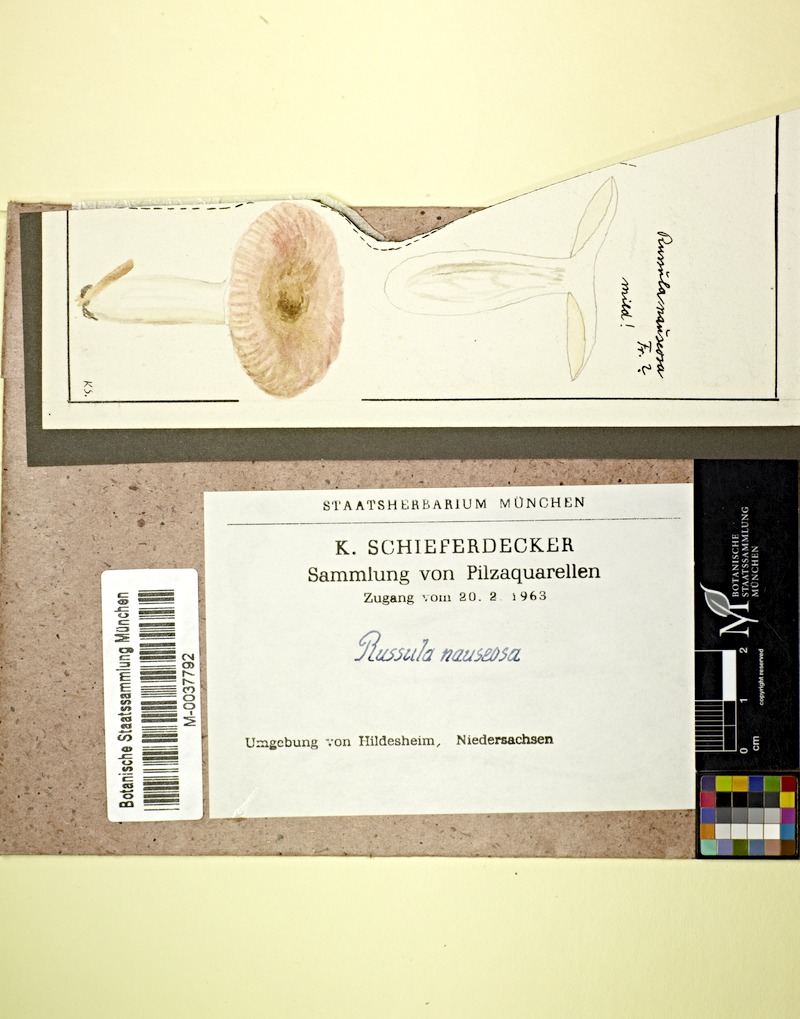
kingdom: Fungi
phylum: Basidiomycota
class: Agaricomycetes
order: Russulales
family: Russulaceae
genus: Russula
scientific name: Russula nauseosa
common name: Nauseous brittlegill
